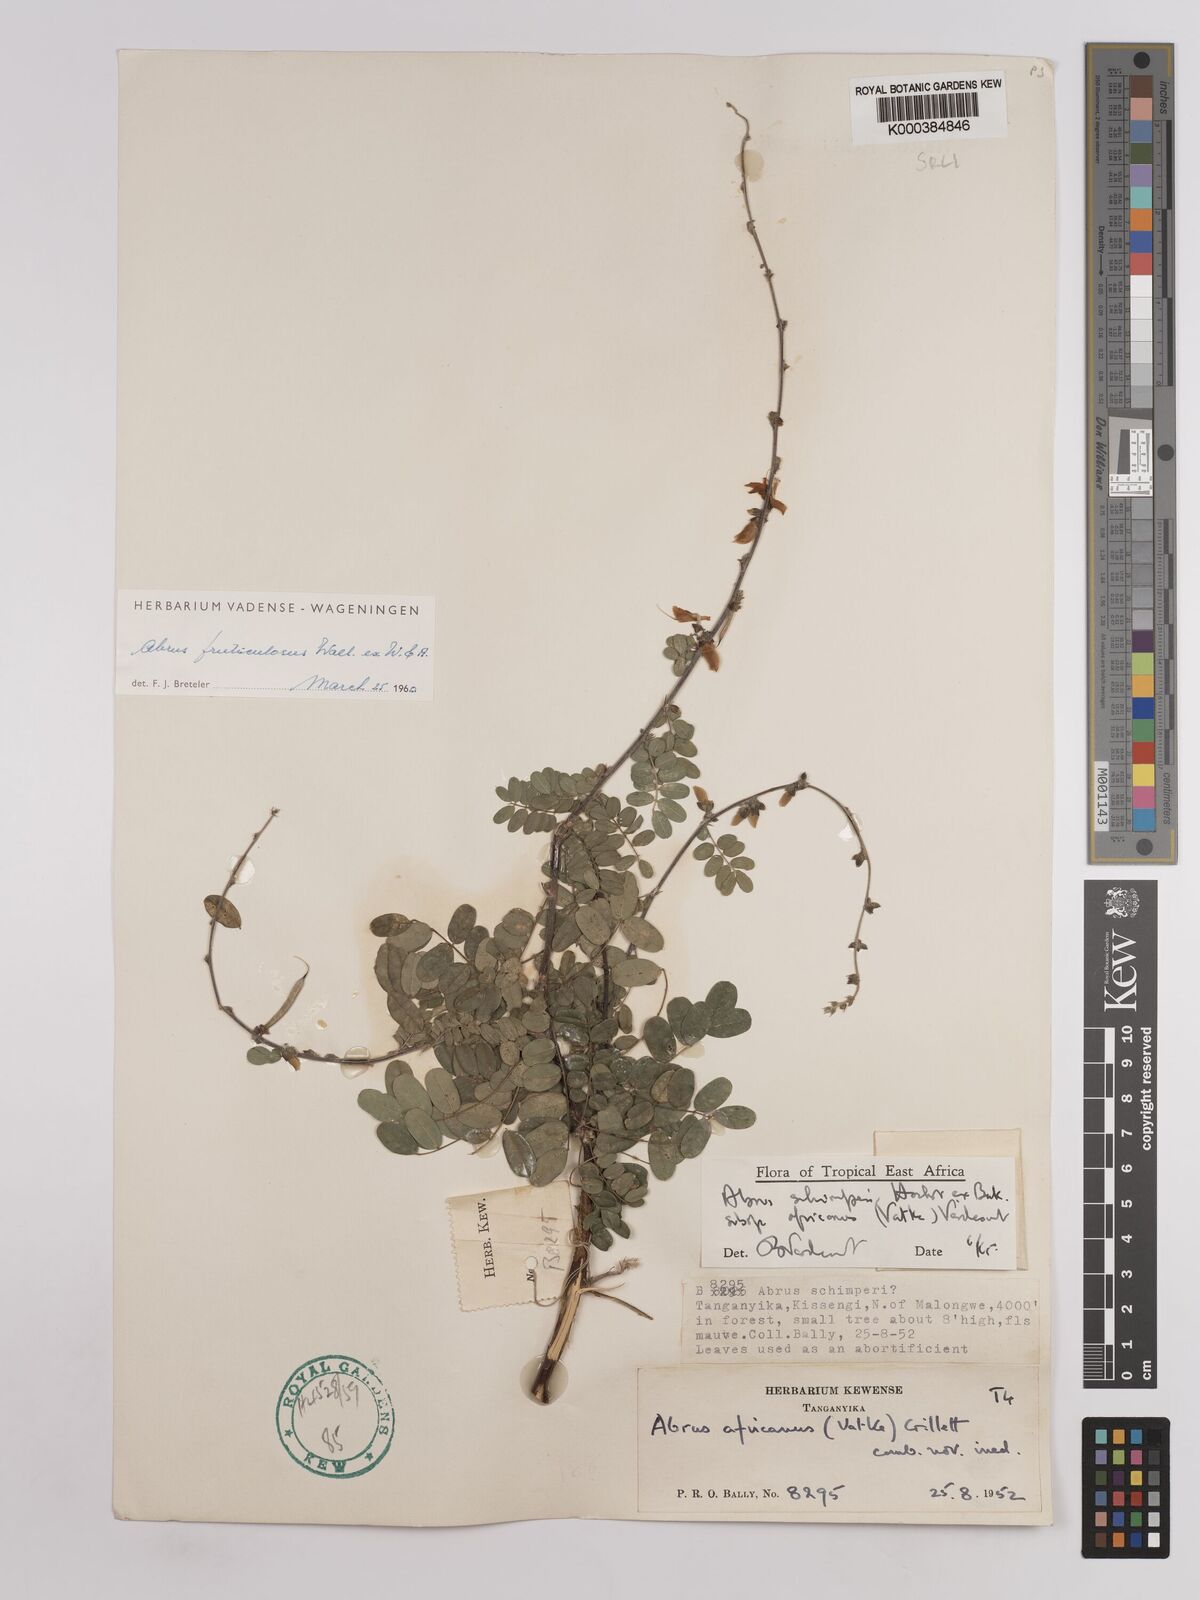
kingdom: Plantae
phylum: Tracheophyta
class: Magnoliopsida
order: Fabales
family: Fabaceae
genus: Abrus
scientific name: Abrus fruticulosus
